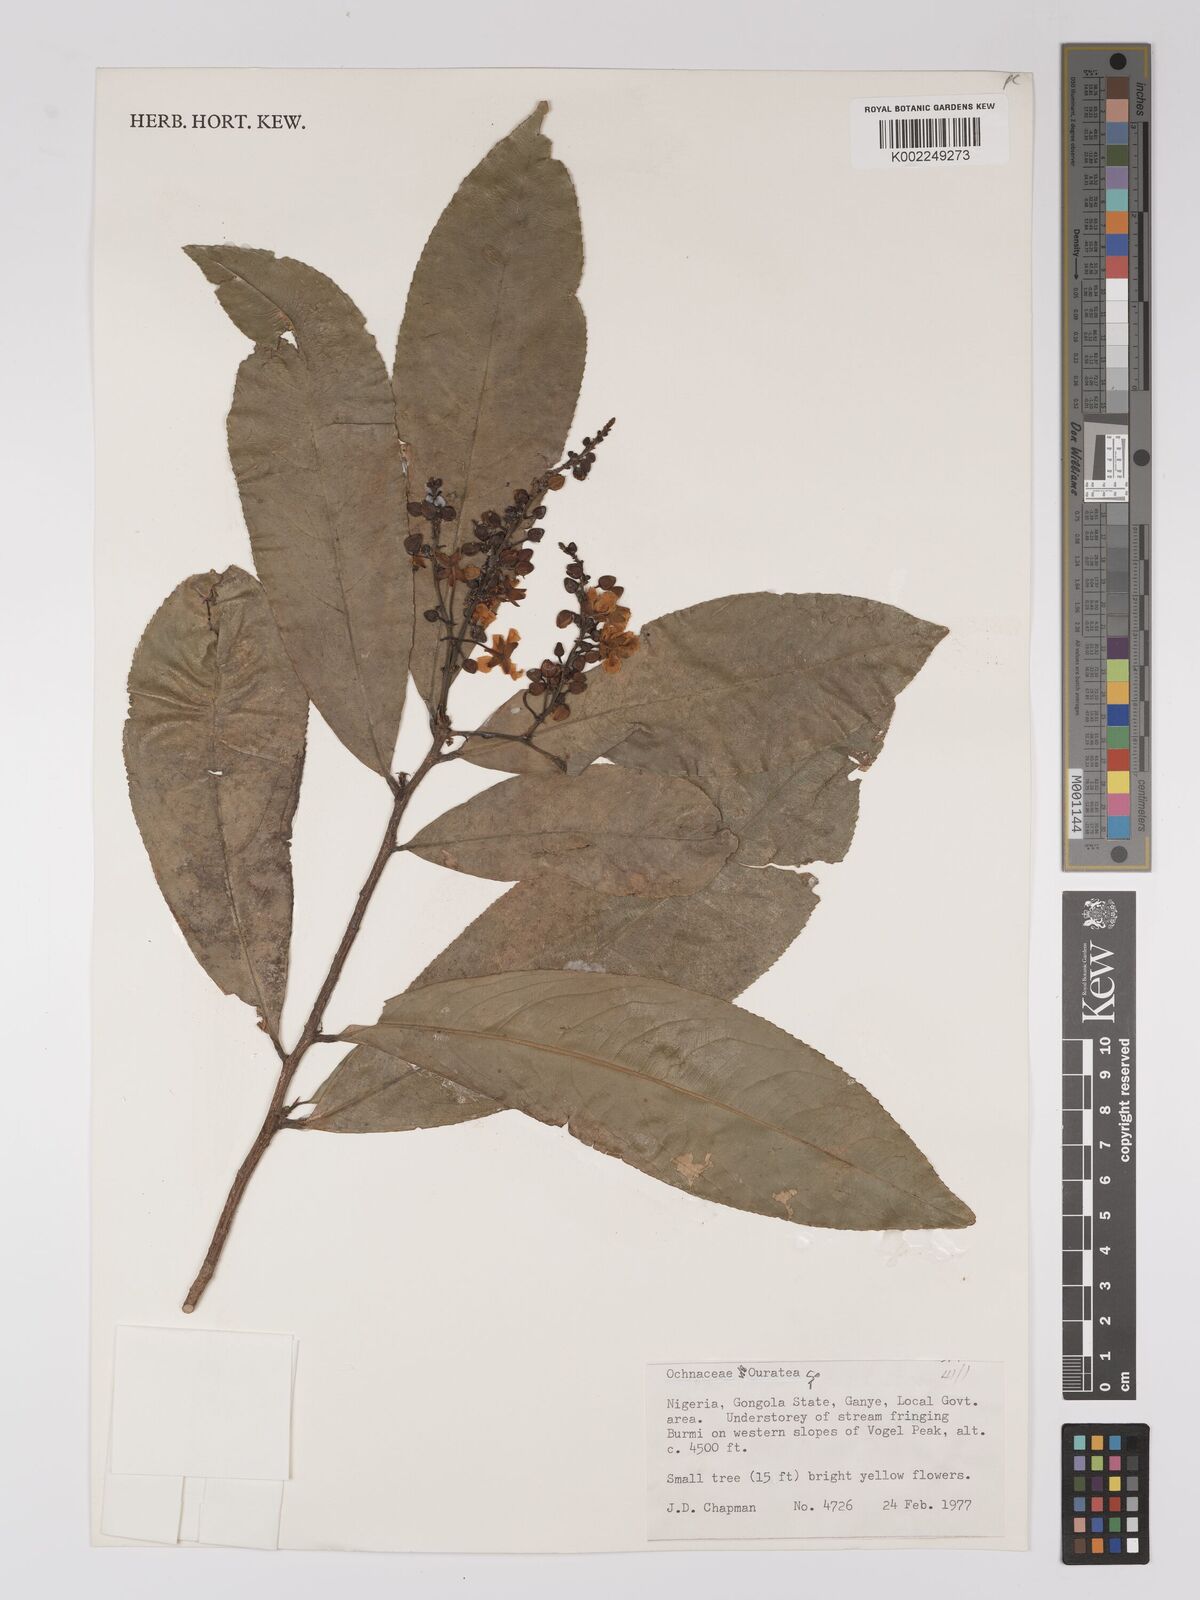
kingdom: Plantae
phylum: Tracheophyta
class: Magnoliopsida
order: Malpighiales
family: Ochnaceae
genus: Campylospermum
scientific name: Campylospermum
